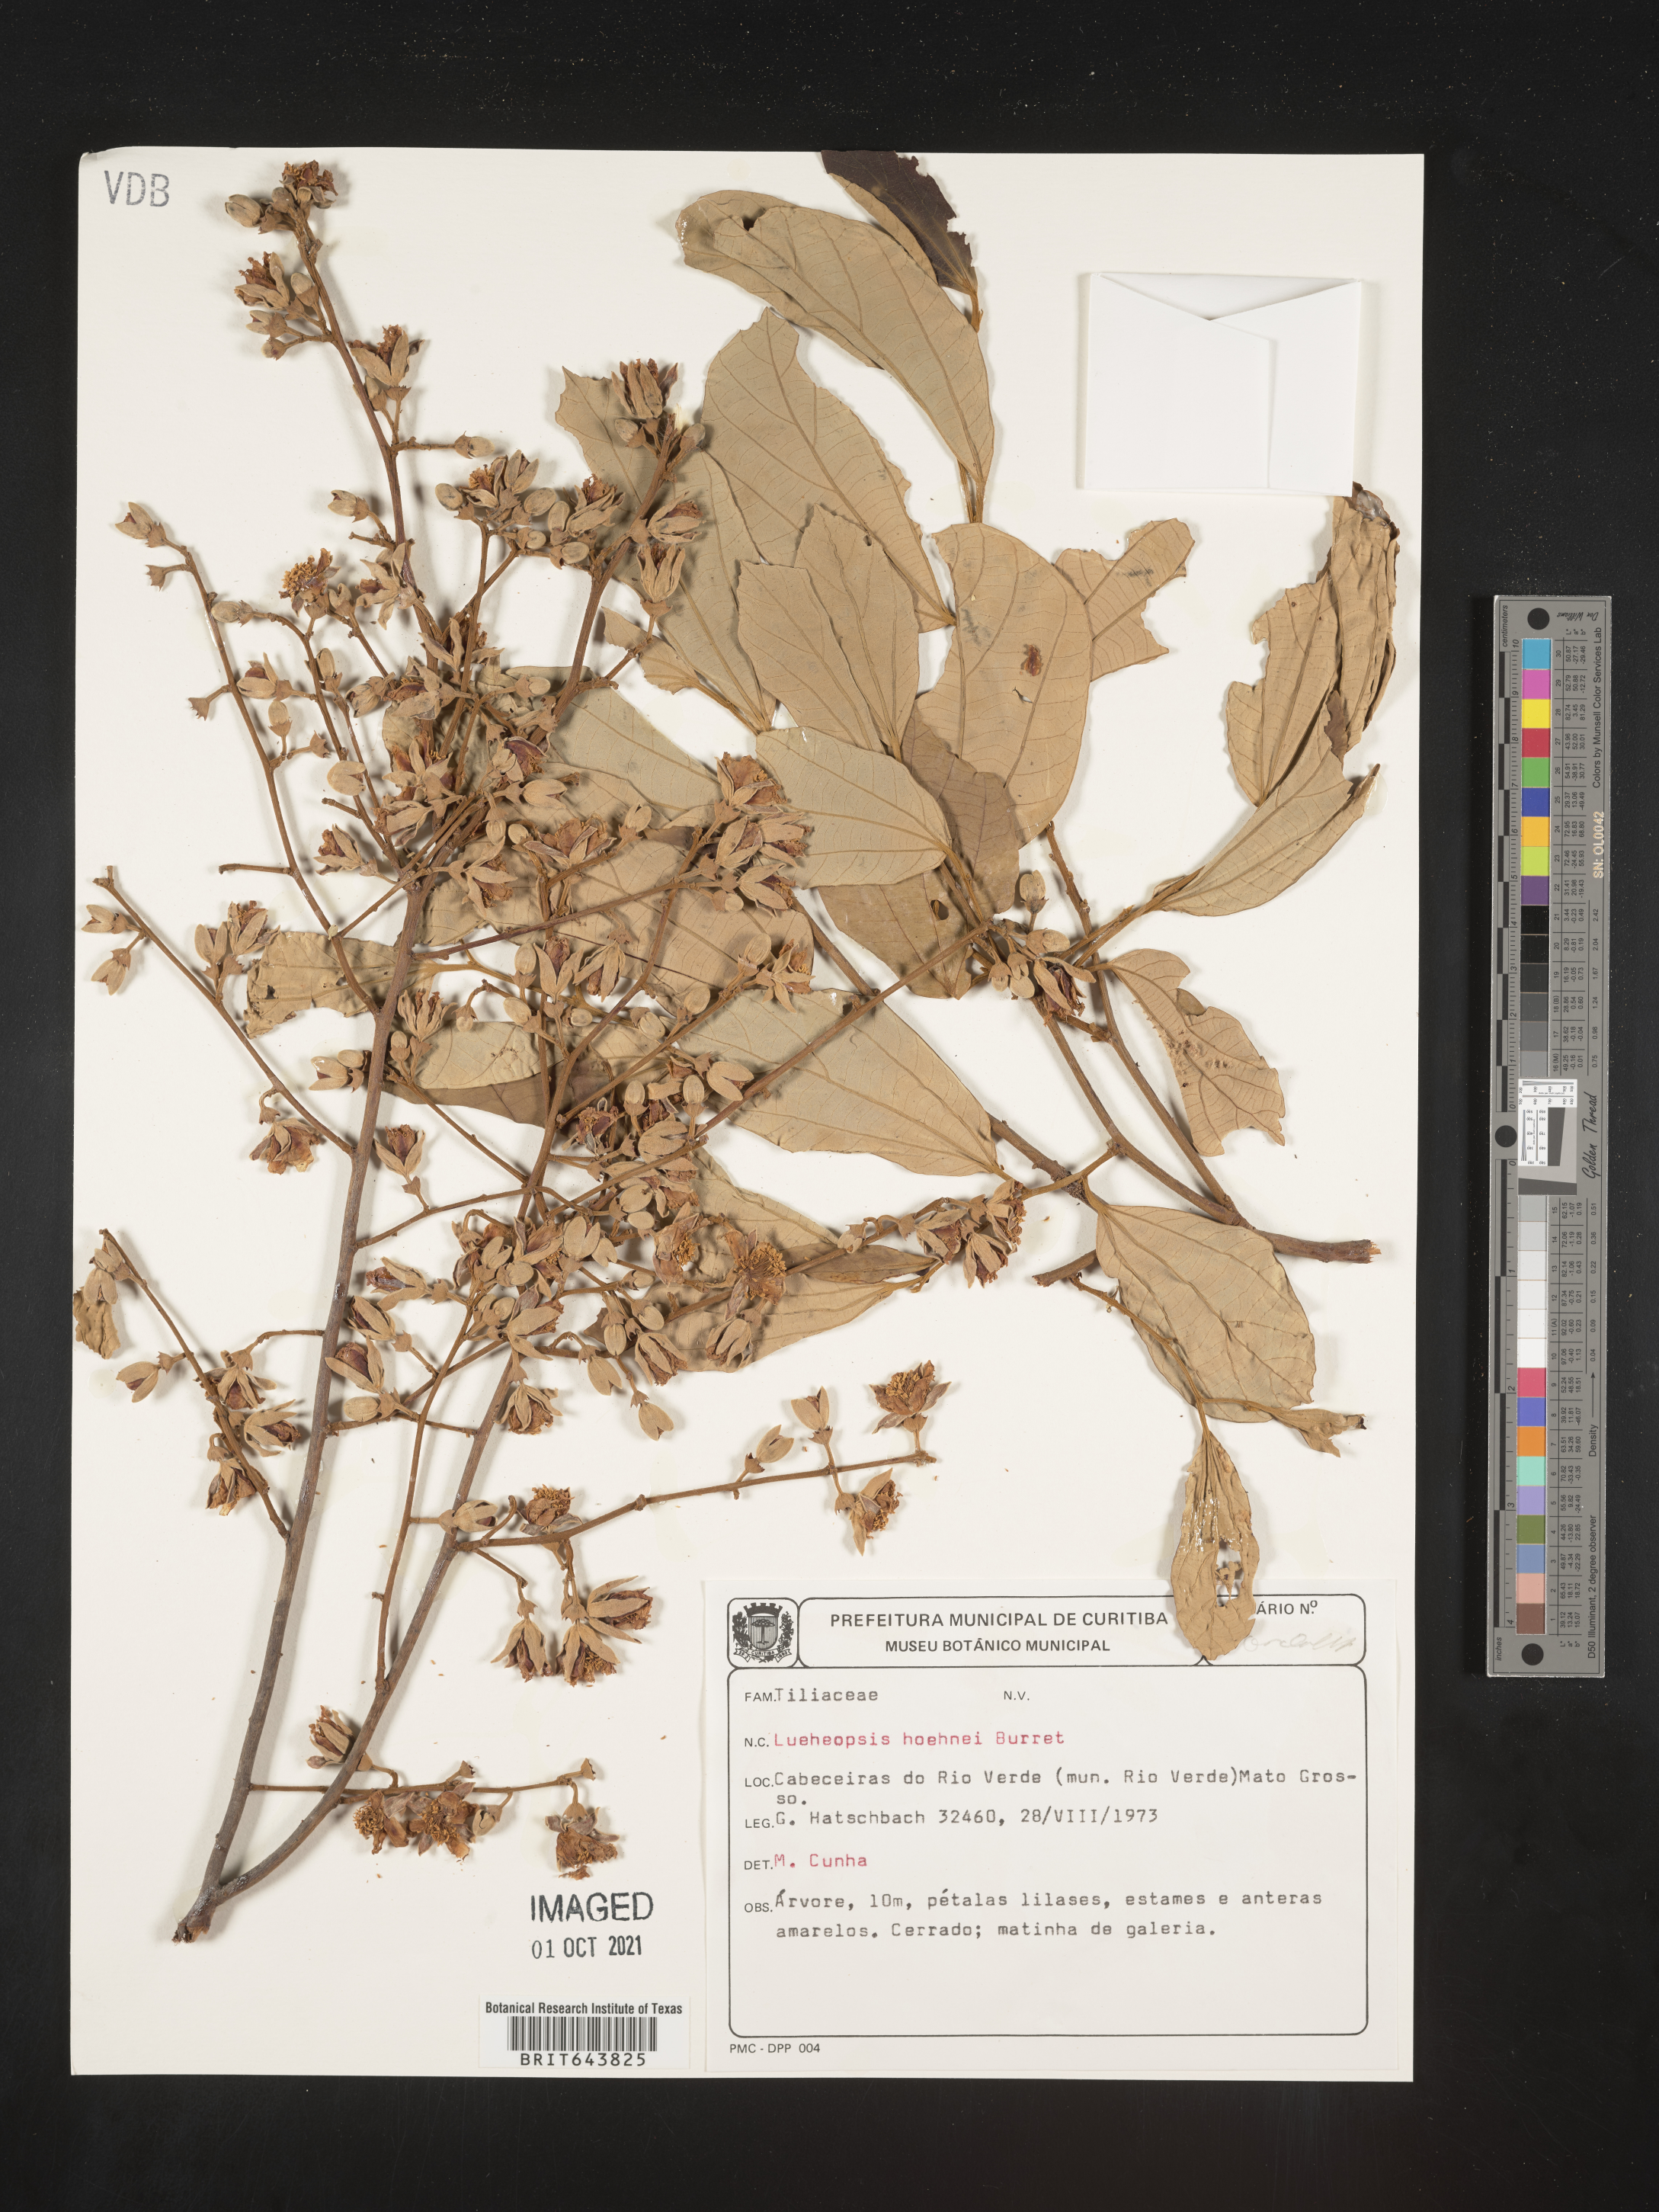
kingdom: Plantae
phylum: Tracheophyta
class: Magnoliopsida
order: Malvales
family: Malvaceae
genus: Lueheopsis
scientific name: Lueheopsis
